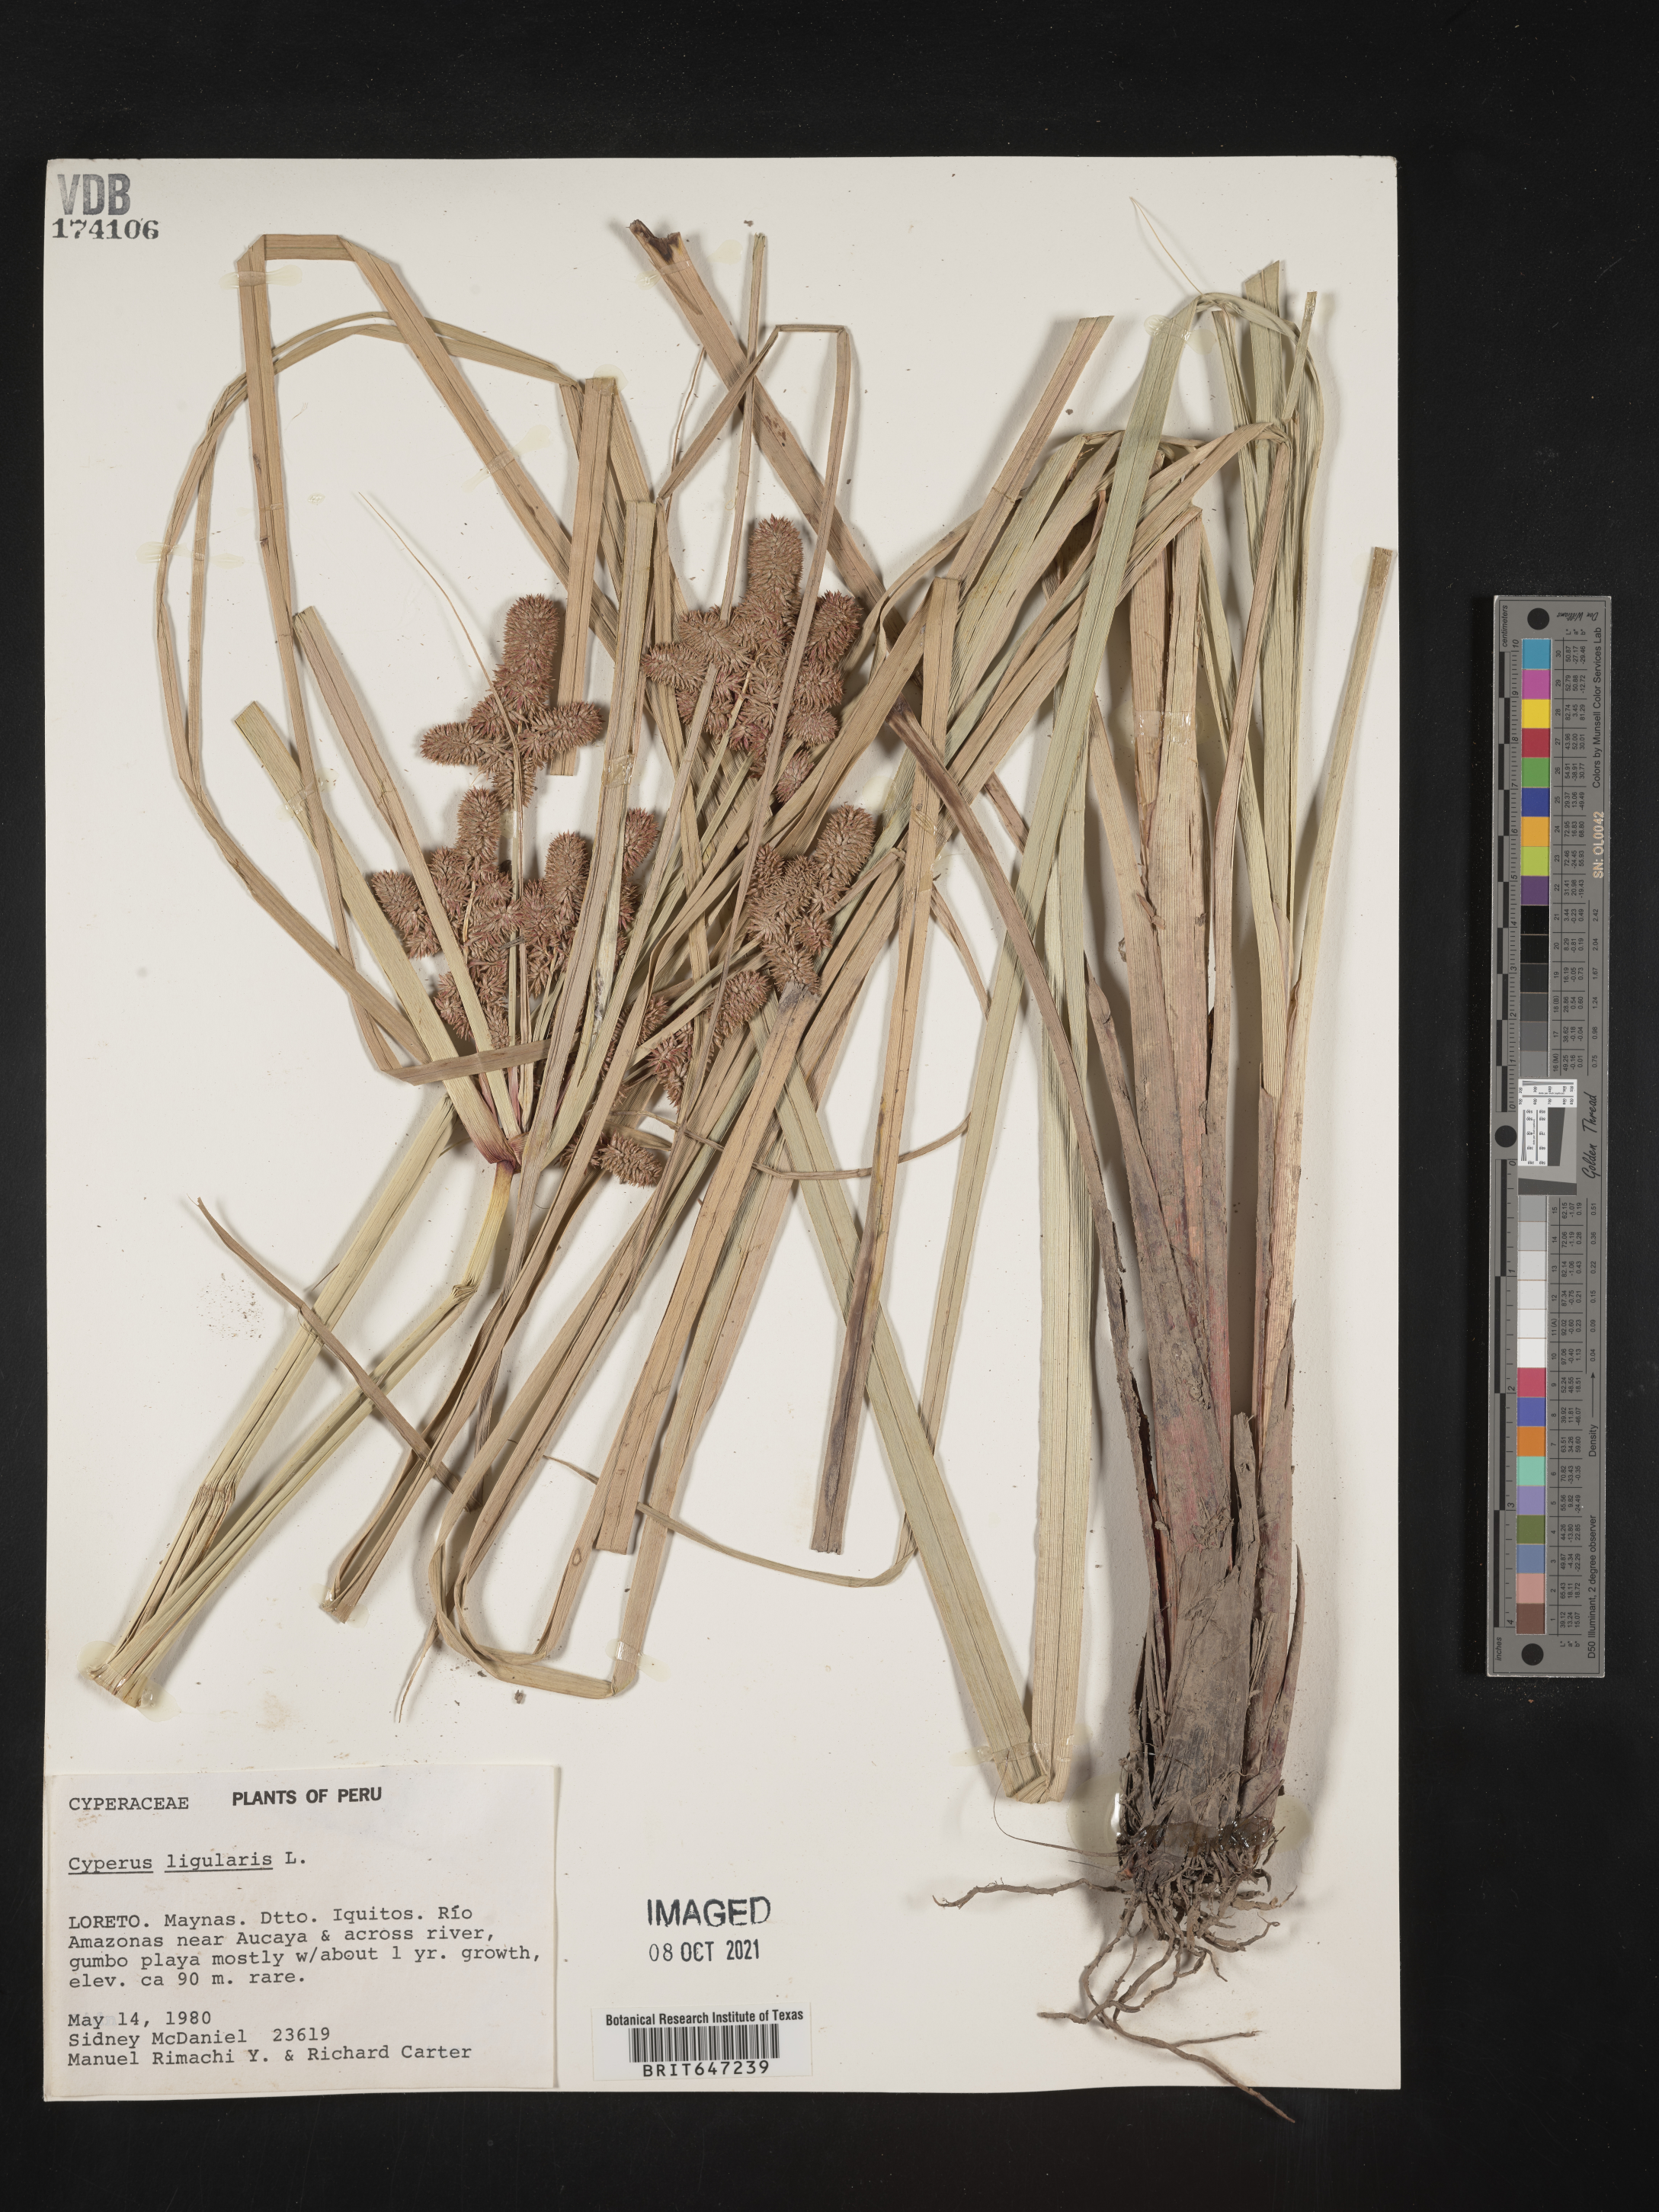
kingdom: Plantae
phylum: Tracheophyta
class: Liliopsida
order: Poales
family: Cyperaceae
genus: Cyperus
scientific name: Cyperus ligularis
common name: Swamp flat sedge
